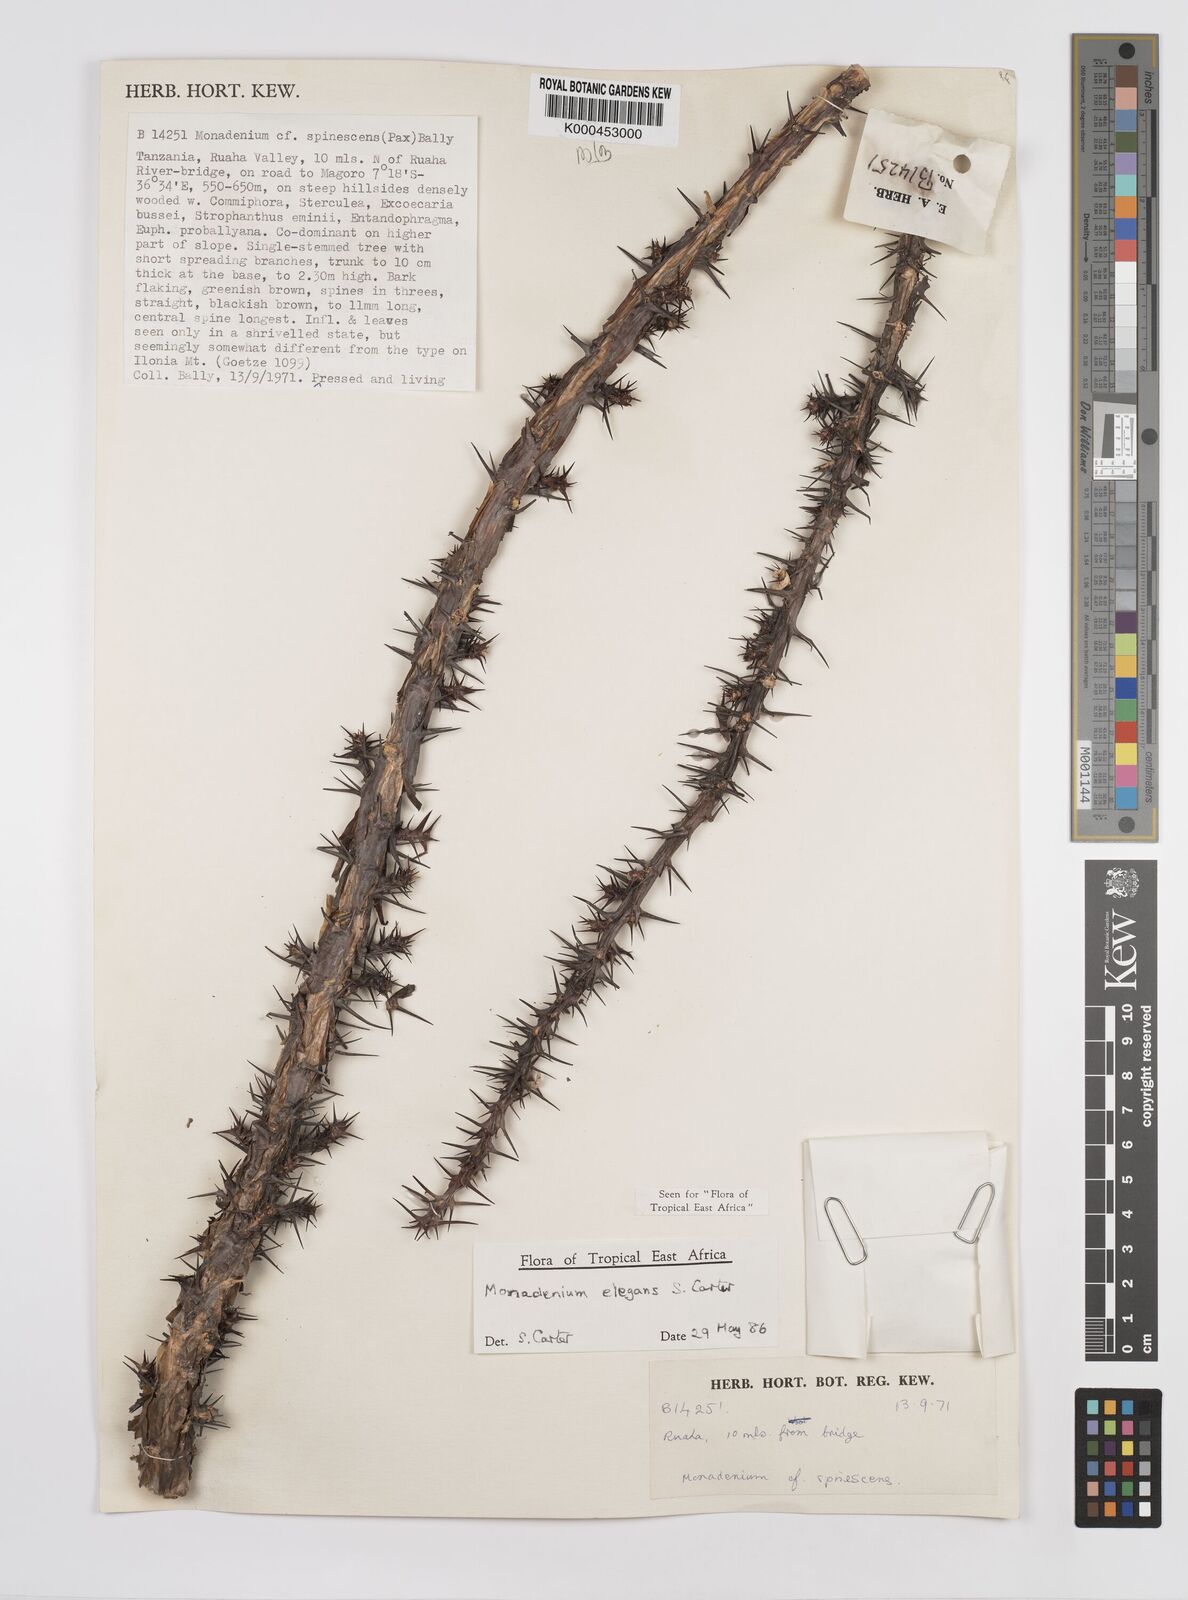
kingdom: Plantae
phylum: Tracheophyta
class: Magnoliopsida
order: Malpighiales
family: Euphorbiaceae
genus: Euphorbia
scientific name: Euphorbia biselegans
